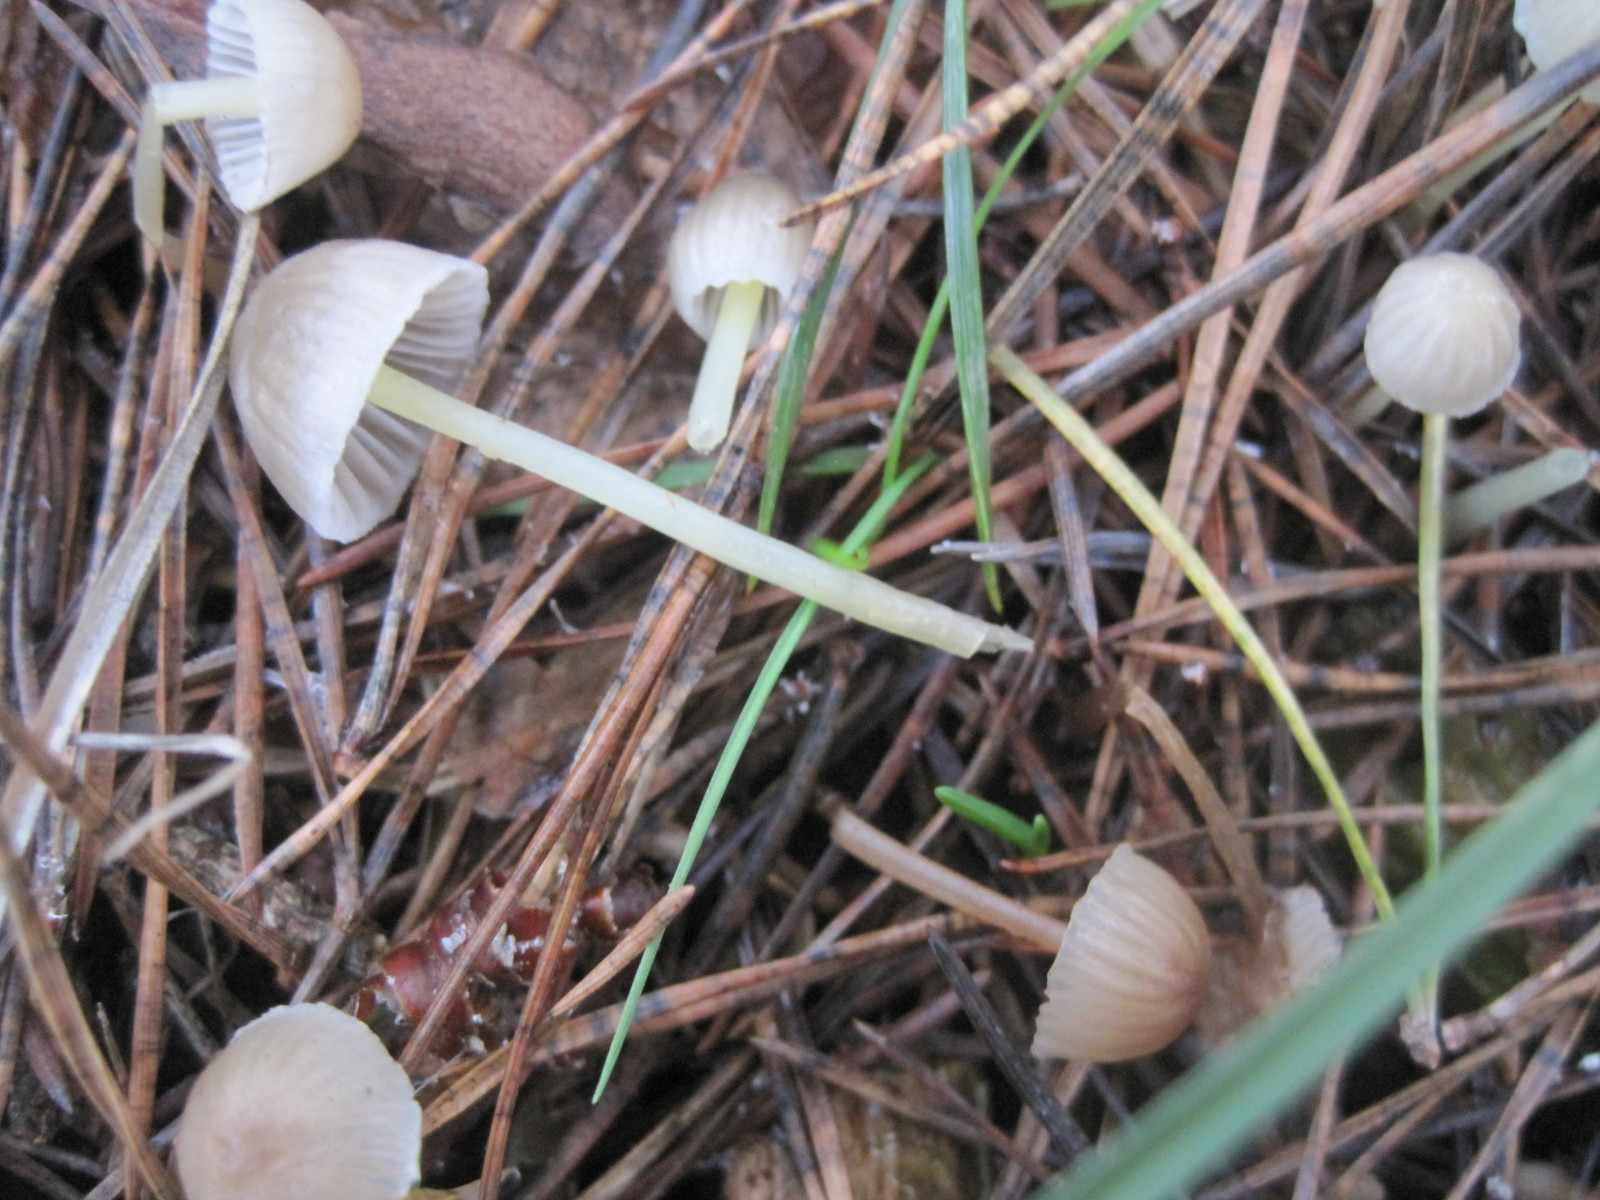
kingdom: Fungi
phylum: Basidiomycota
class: Agaricomycetes
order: Agaricales
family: Mycenaceae
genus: Mycena
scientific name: Mycena epipterygia
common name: gulstokket huesvamp
